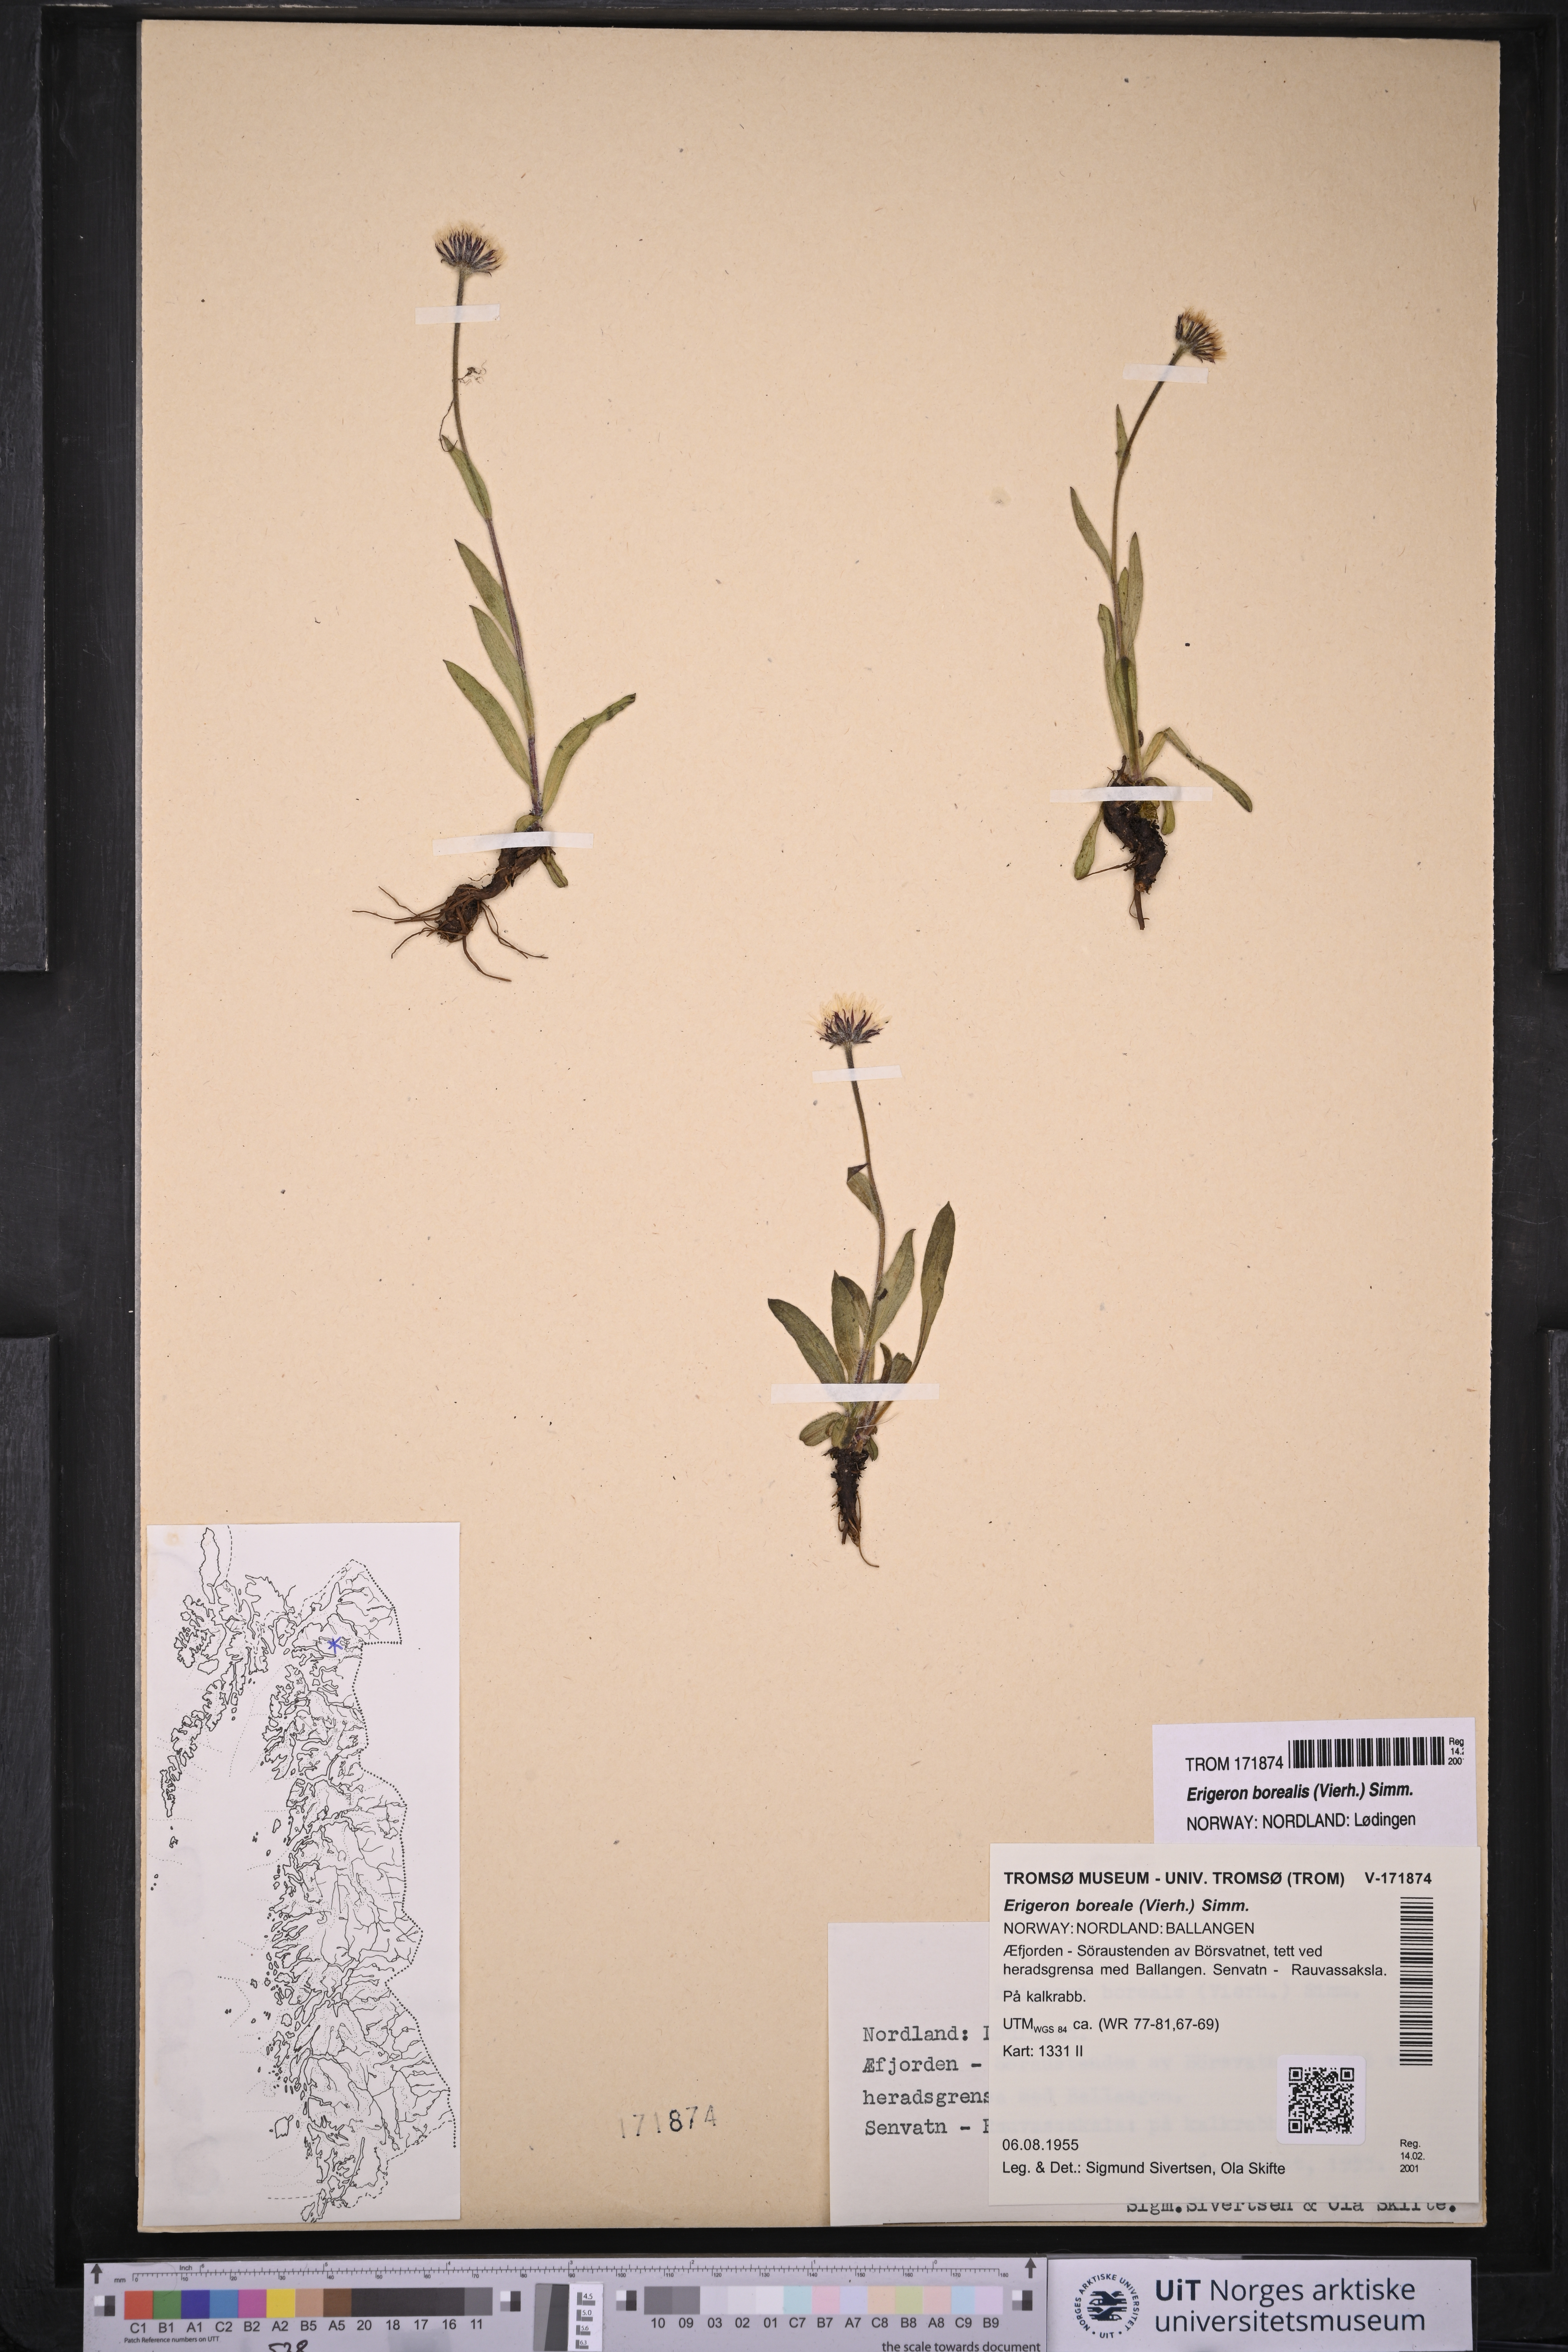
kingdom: Plantae
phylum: Tracheophyta
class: Magnoliopsida
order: Asterales
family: Asteraceae
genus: Erigeron
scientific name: Erigeron borealis
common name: Alpine fleabane
